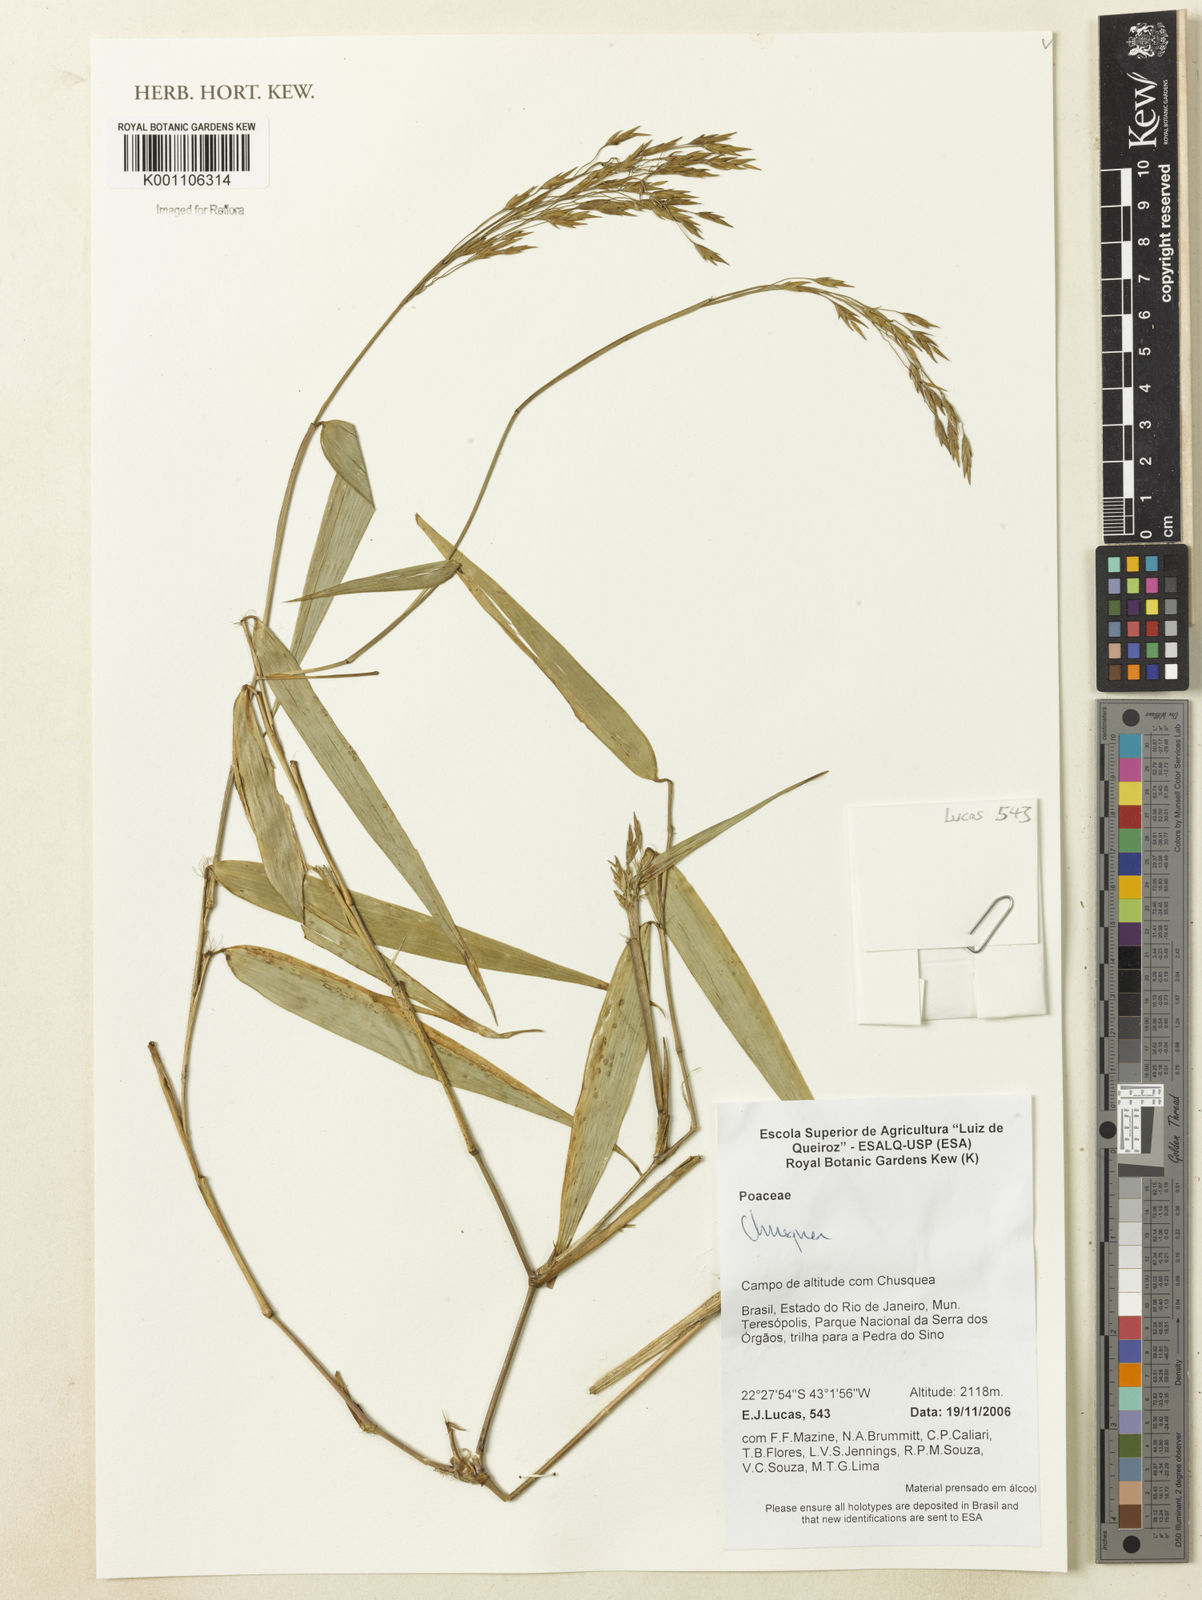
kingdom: Plantae
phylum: Tracheophyta
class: Liliopsida
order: Poales
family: Poaceae
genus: Chusquea
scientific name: Chusquea
